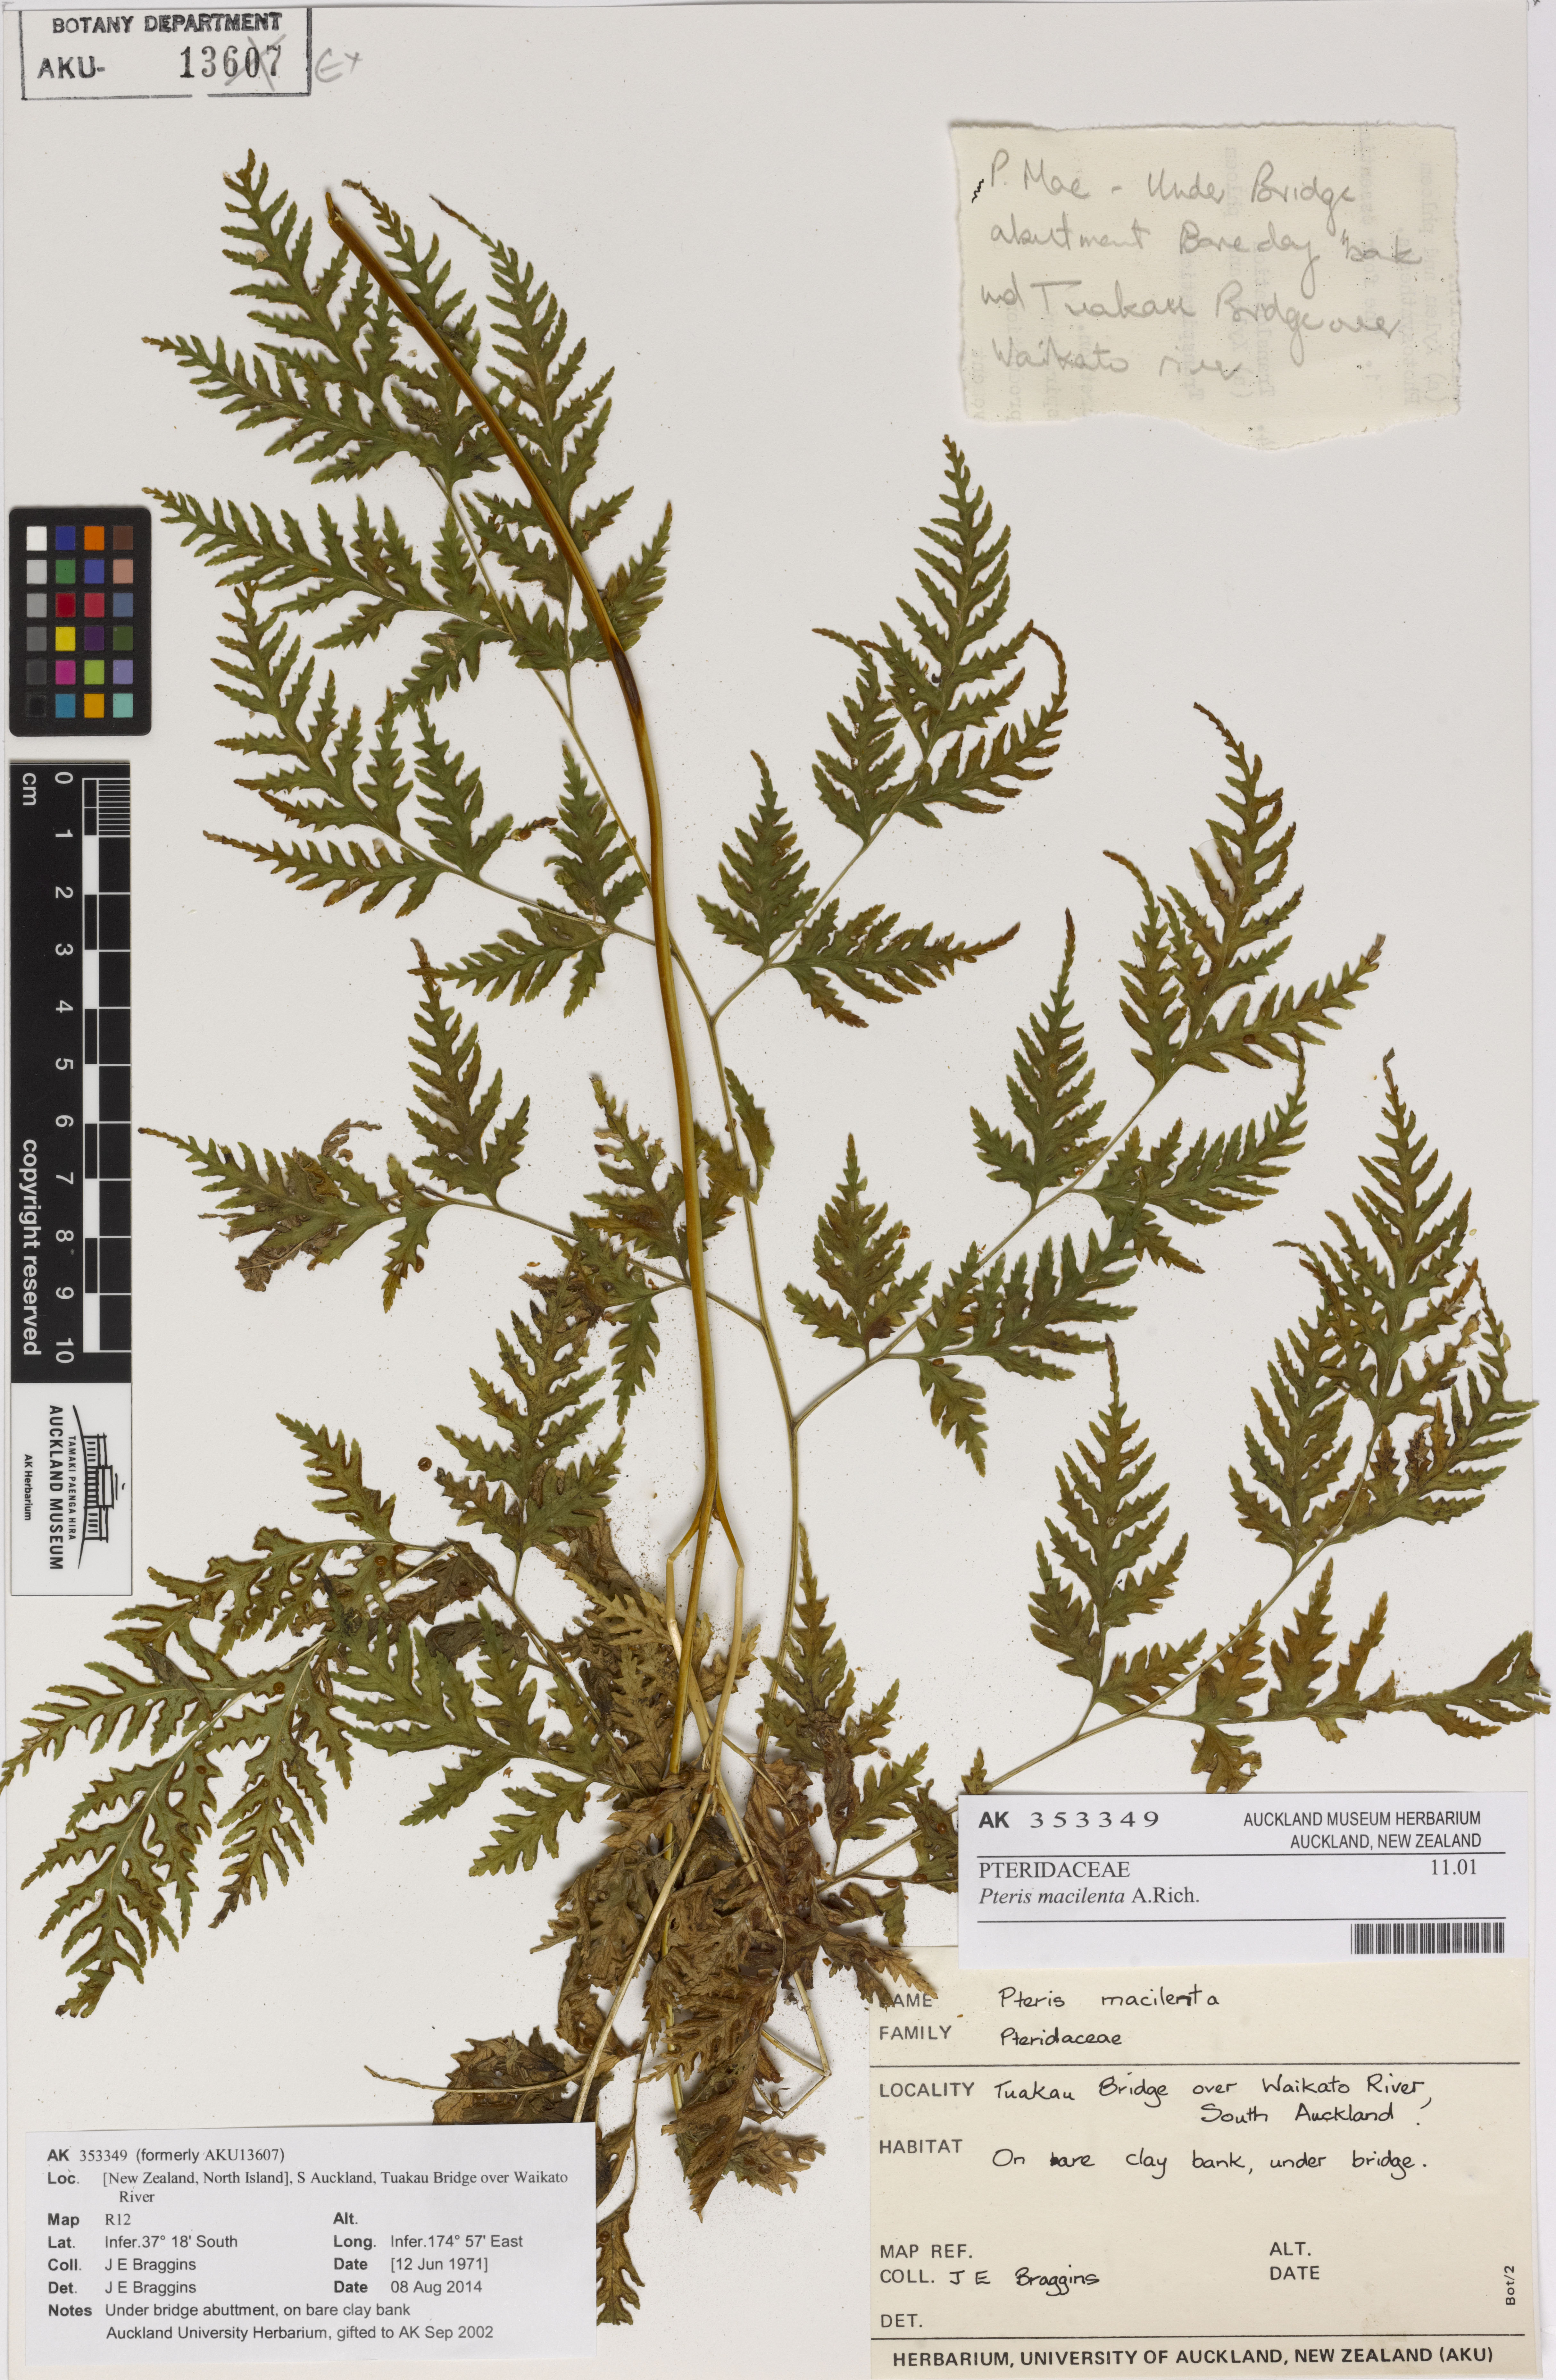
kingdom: Plantae
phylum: Tracheophyta
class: Polypodiopsida
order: Polypodiales
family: Pteridaceae
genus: Pteris
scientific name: Pteris macilenta
